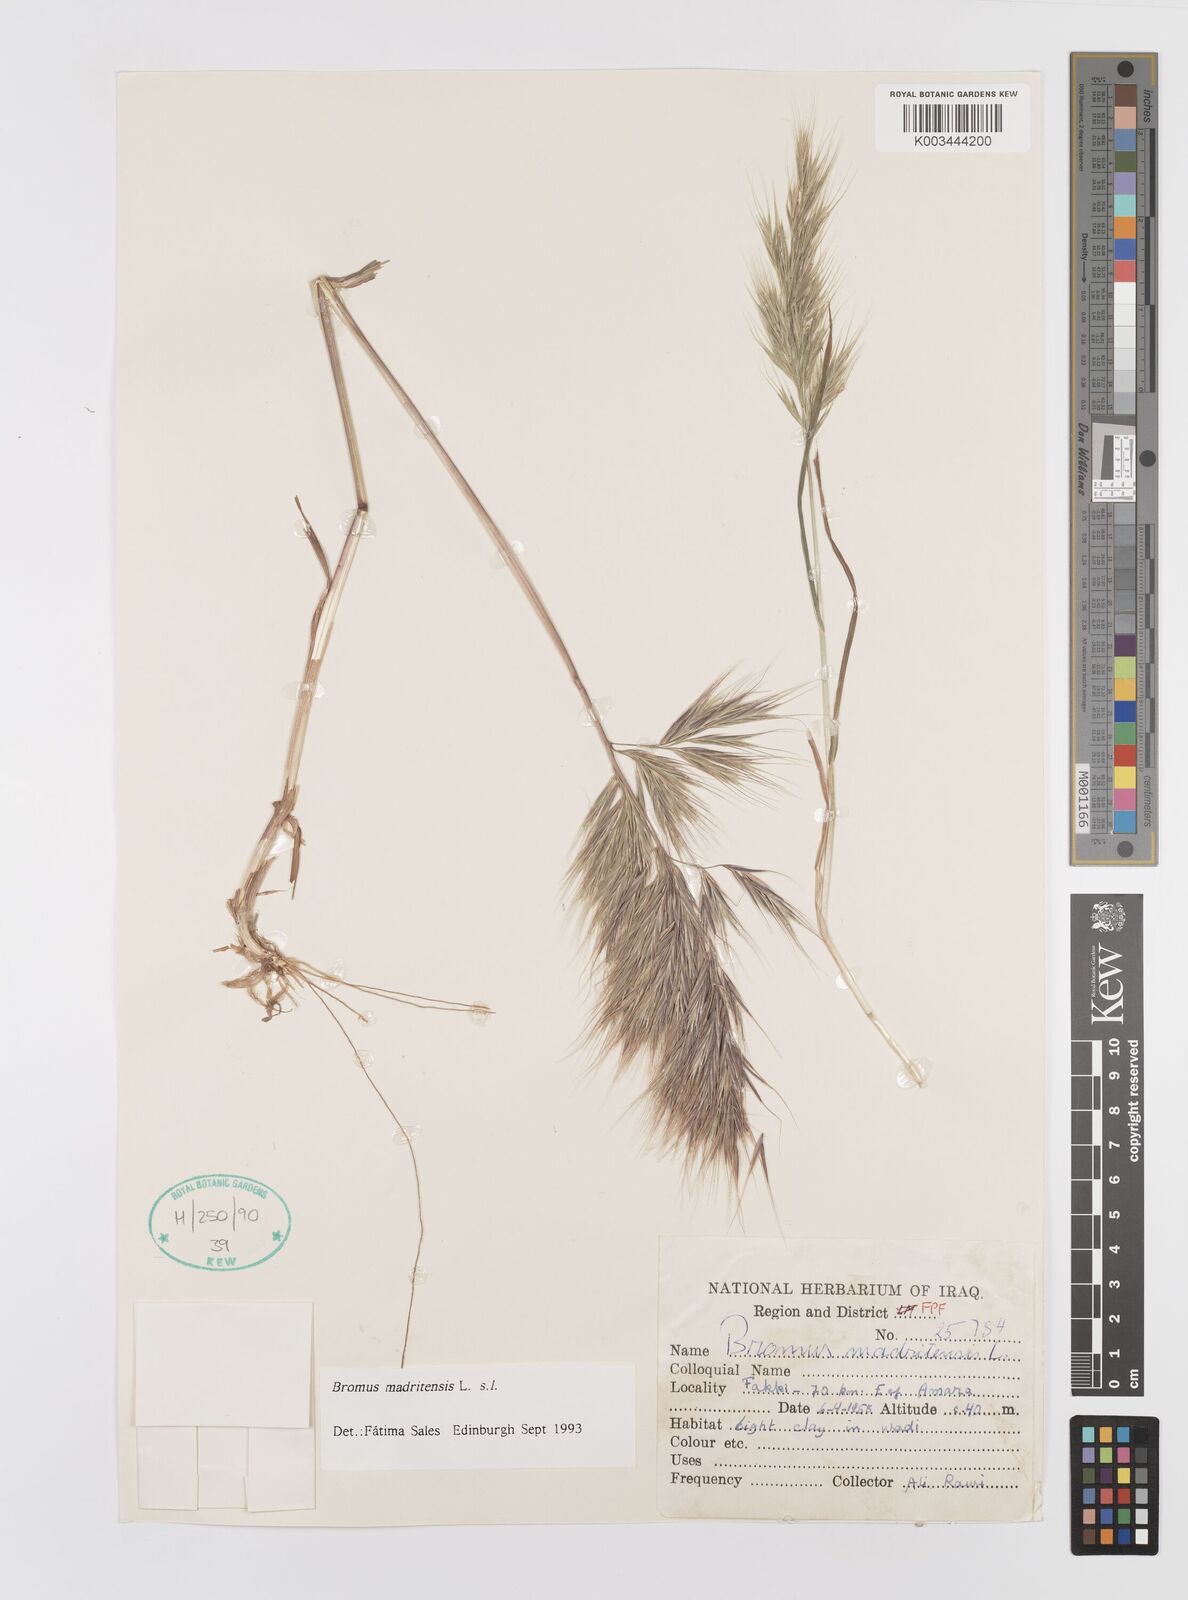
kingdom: Plantae
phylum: Tracheophyta
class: Liliopsida
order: Poales
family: Poaceae
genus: Bromus
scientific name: Bromus madritensis
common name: Compact brome
